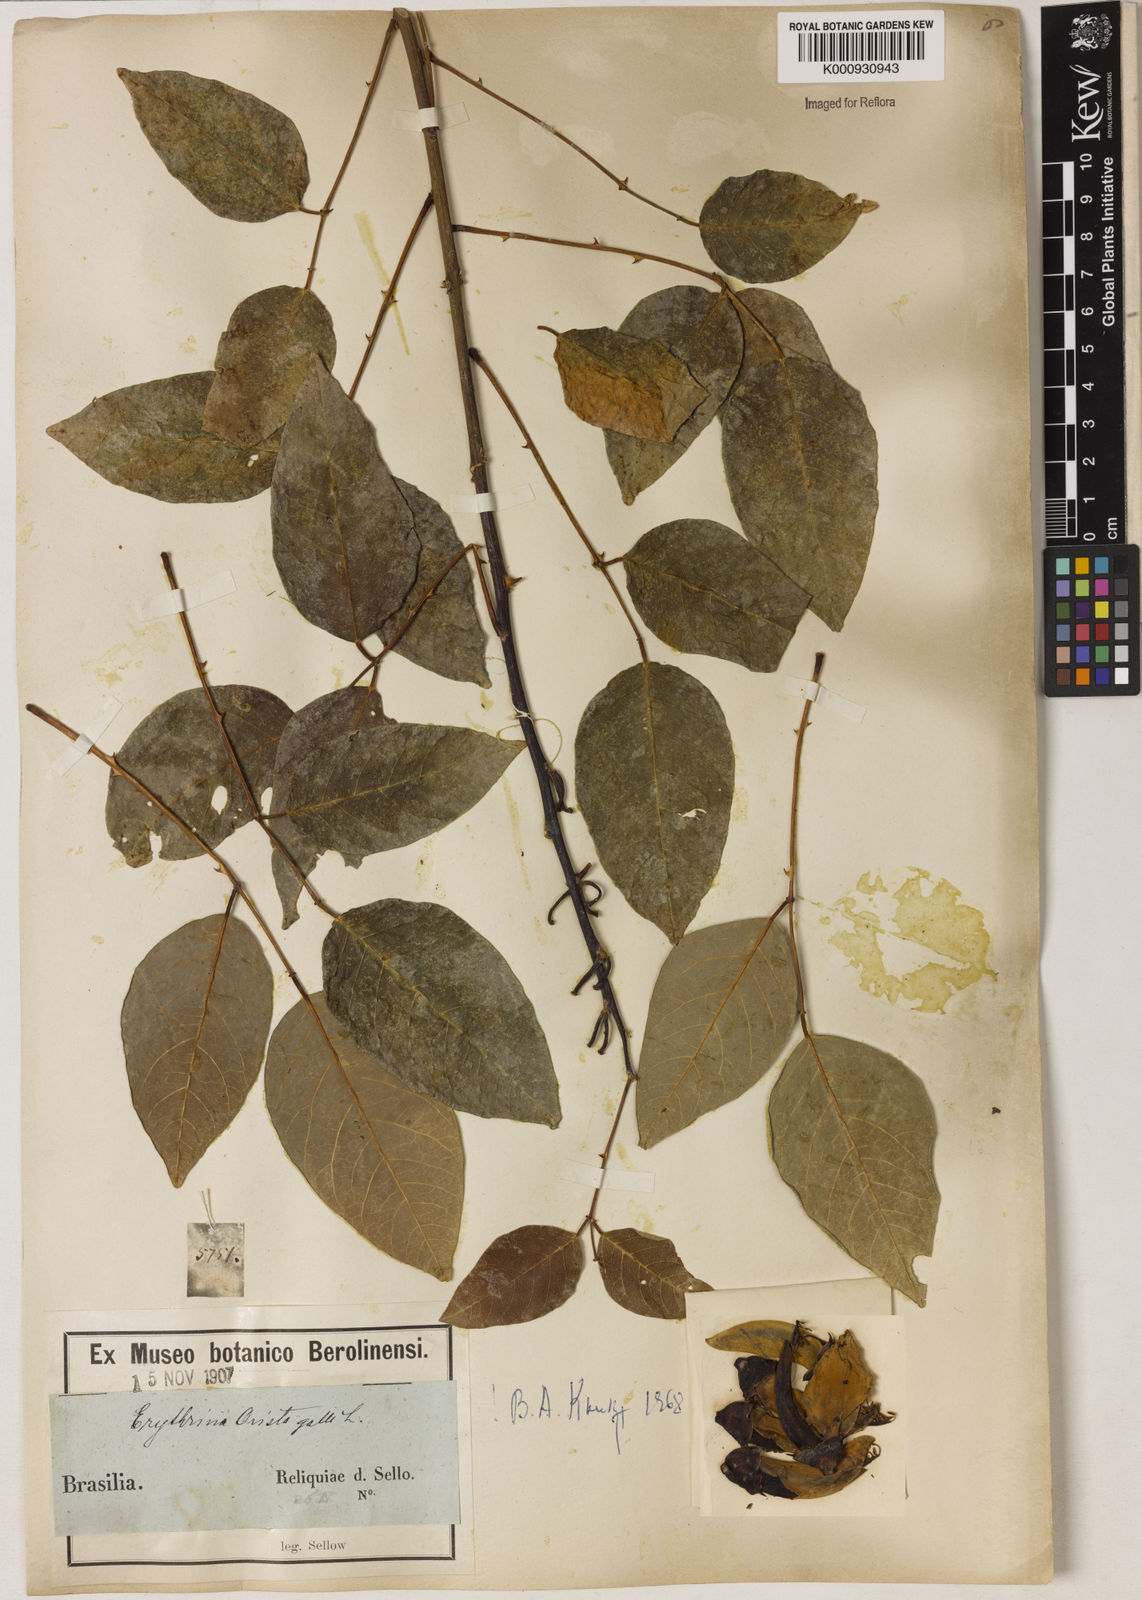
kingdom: Plantae
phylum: Tracheophyta
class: Magnoliopsida
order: Fabales
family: Fabaceae
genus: Erythrina
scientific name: Erythrina crista-galli
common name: Cockspur coral tree
